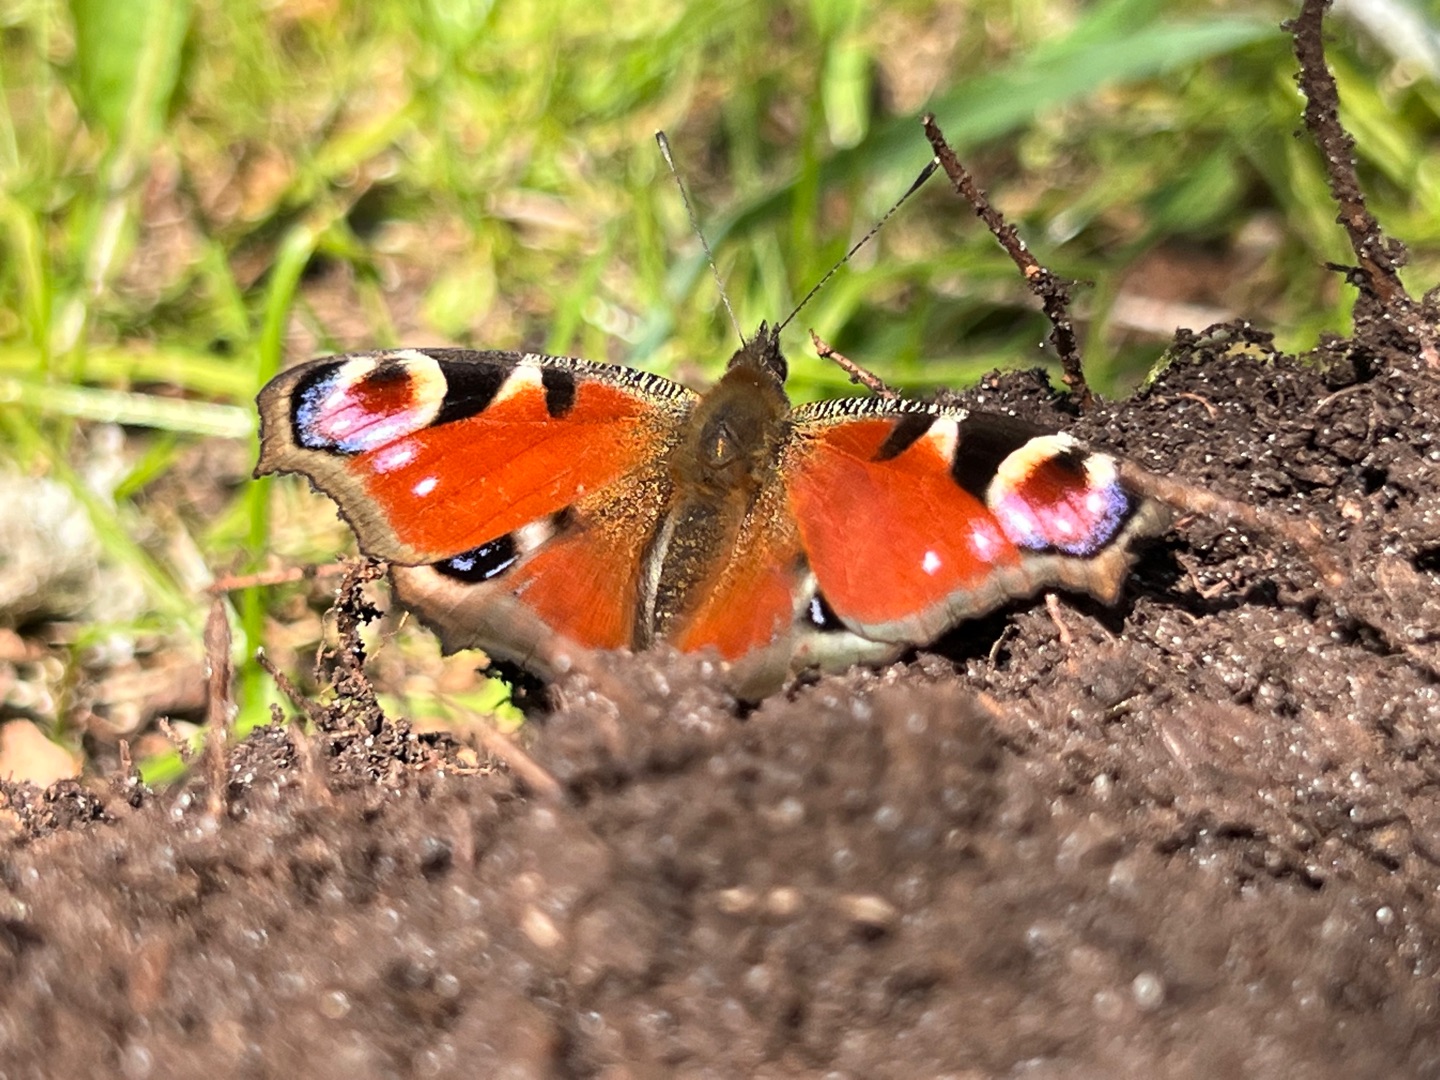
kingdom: Animalia
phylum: Arthropoda
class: Insecta
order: Lepidoptera
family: Nymphalidae
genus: Aglais
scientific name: Aglais io
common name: Dagpåfugleøje
